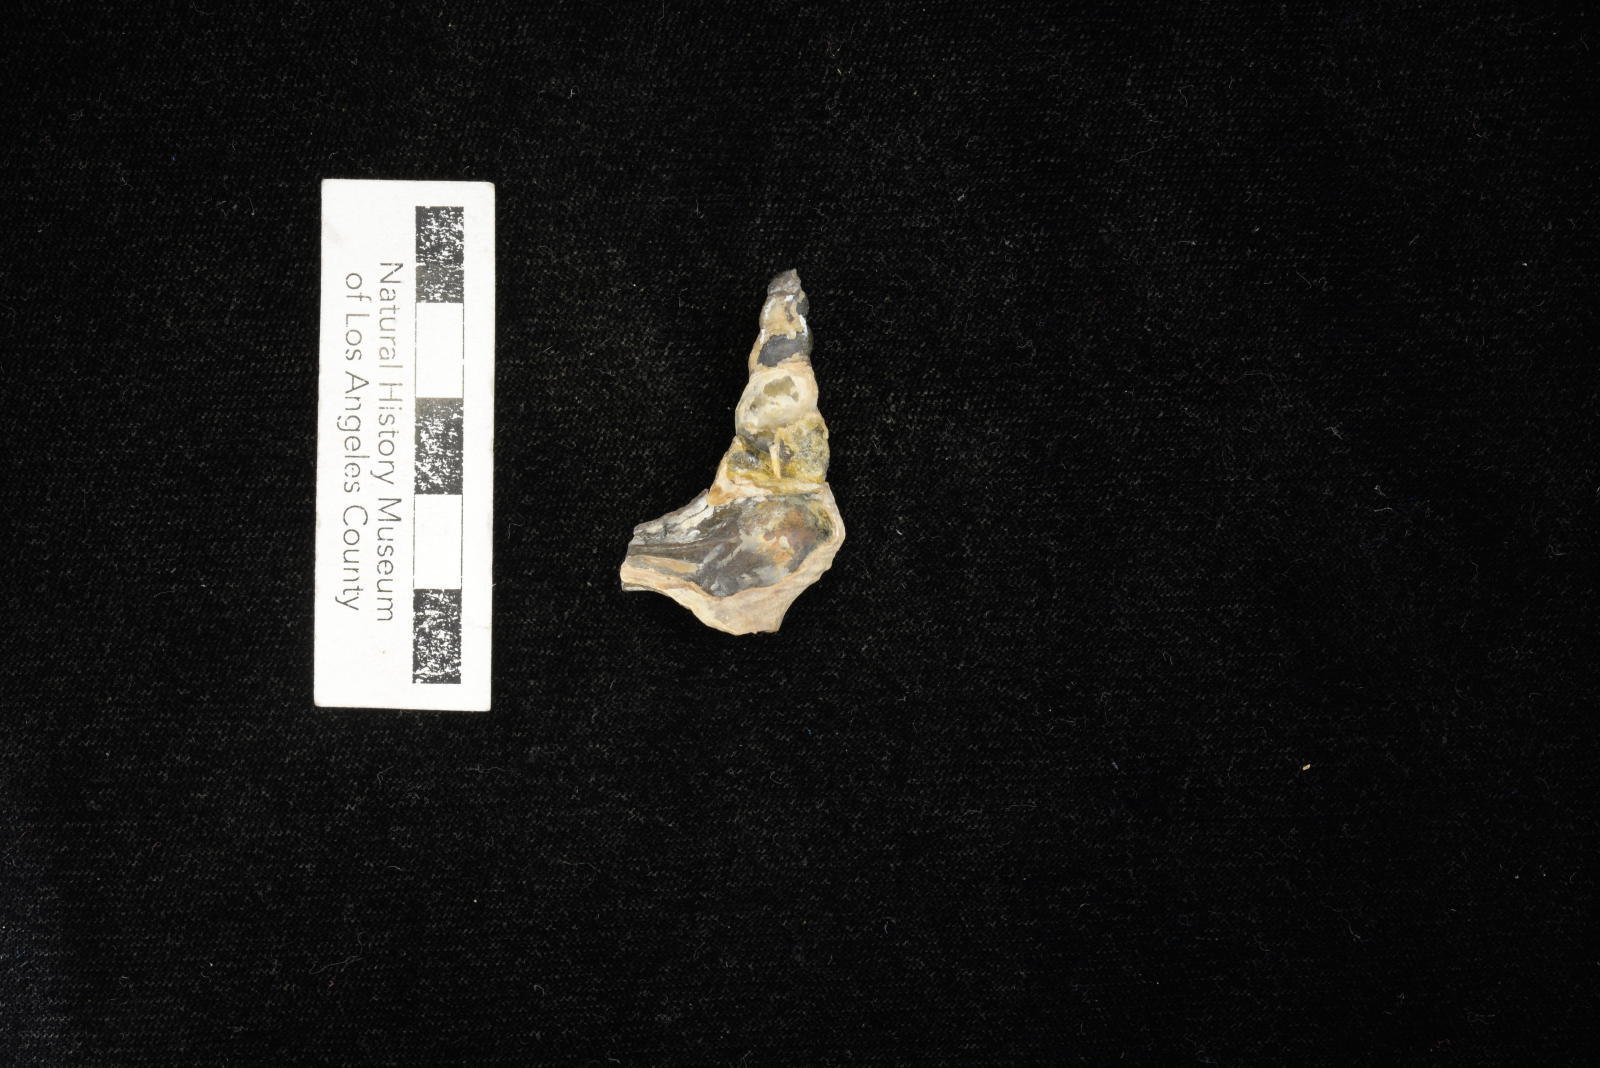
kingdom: Animalia
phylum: Mollusca
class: Gastropoda
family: Metacerithiidae
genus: Cimolithium
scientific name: Cimolithium eleanorae
